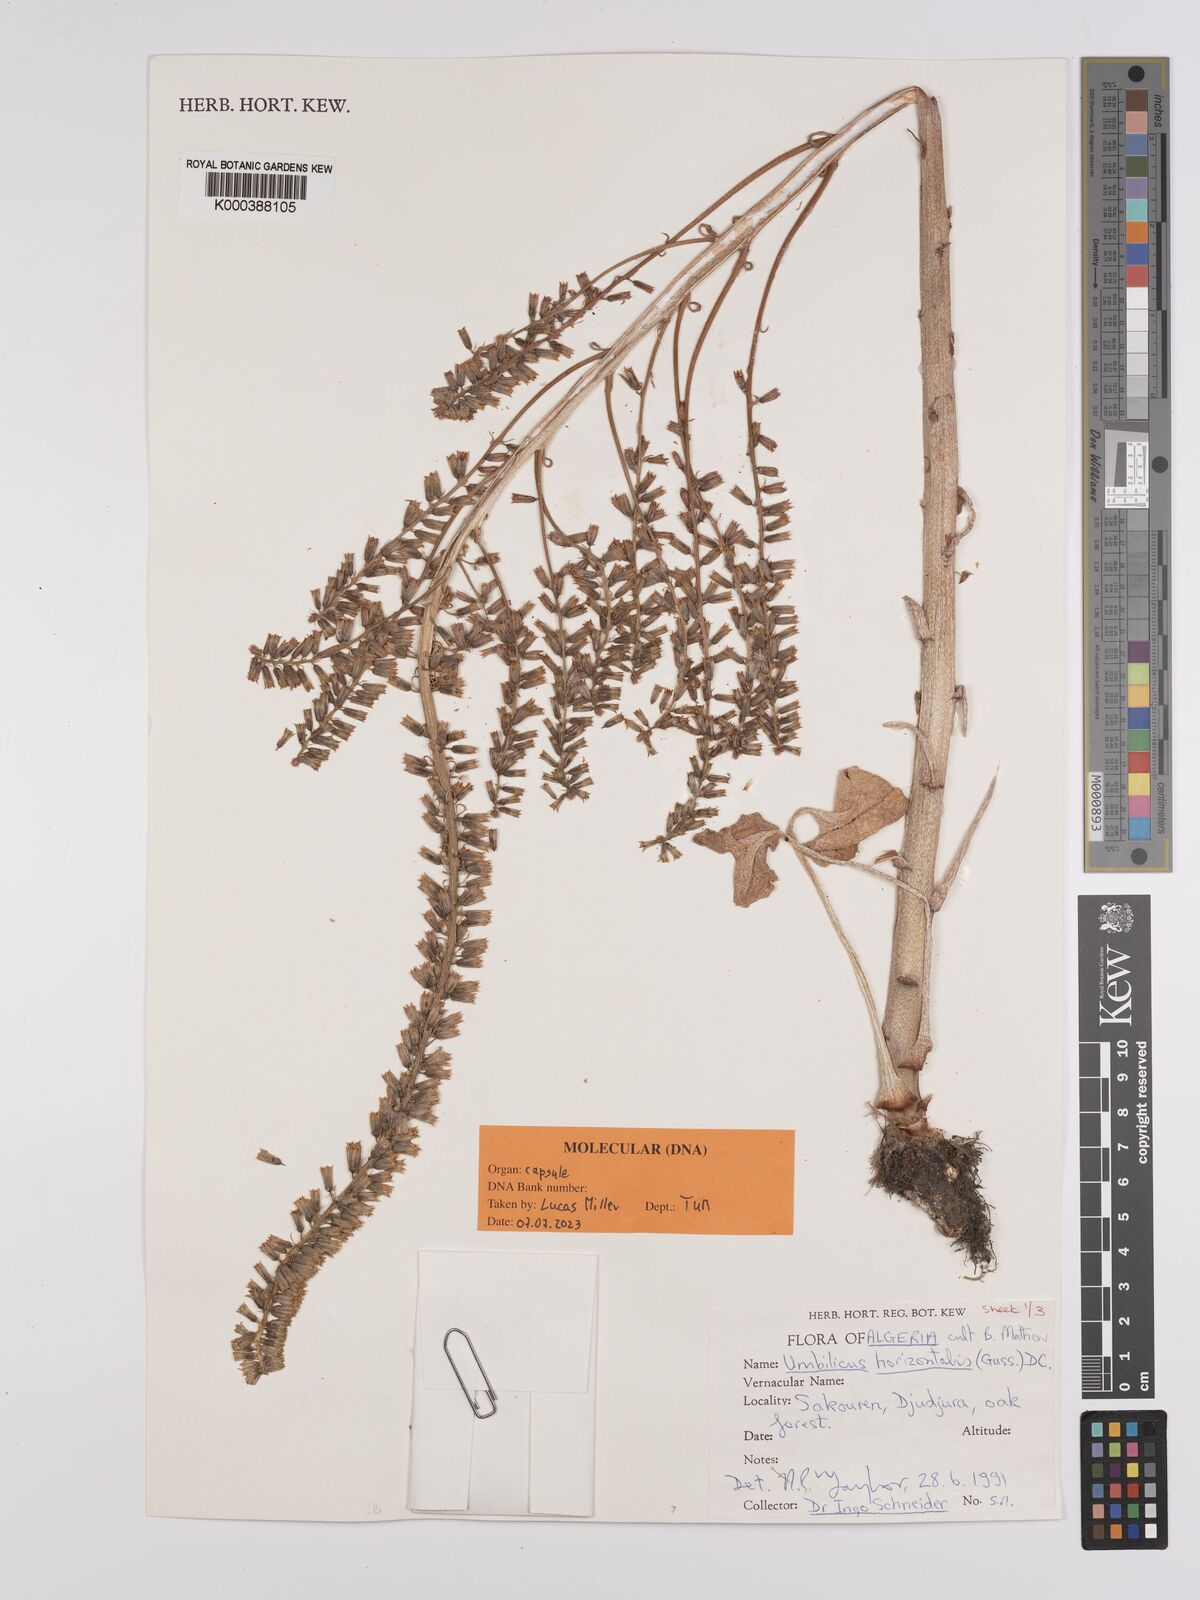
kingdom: Plantae
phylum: Tracheophyta
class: Magnoliopsida
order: Saxifragales
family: Crassulaceae
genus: Umbilicus
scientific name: Umbilicus horizontalis
